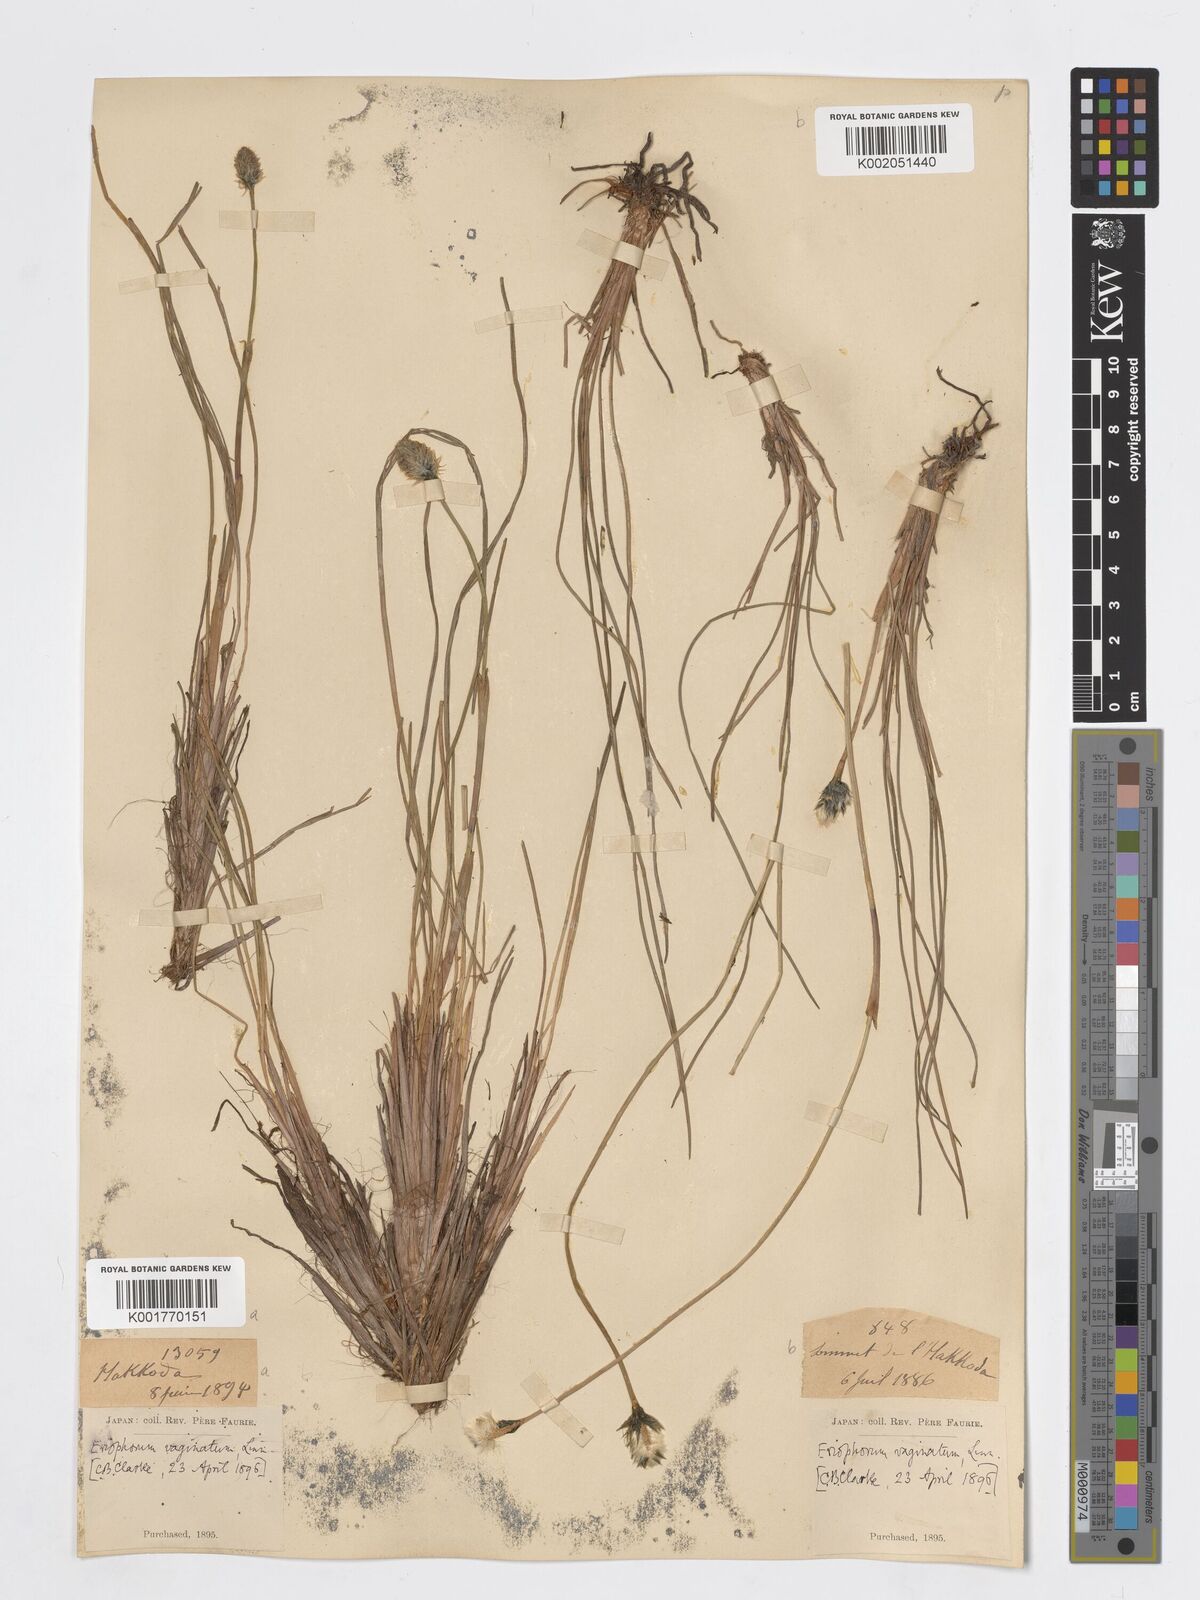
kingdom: Plantae
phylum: Tracheophyta
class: Liliopsida
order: Poales
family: Cyperaceae
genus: Eriophorum
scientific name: Eriophorum vaginatum
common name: Hare's-tail cottongrass
